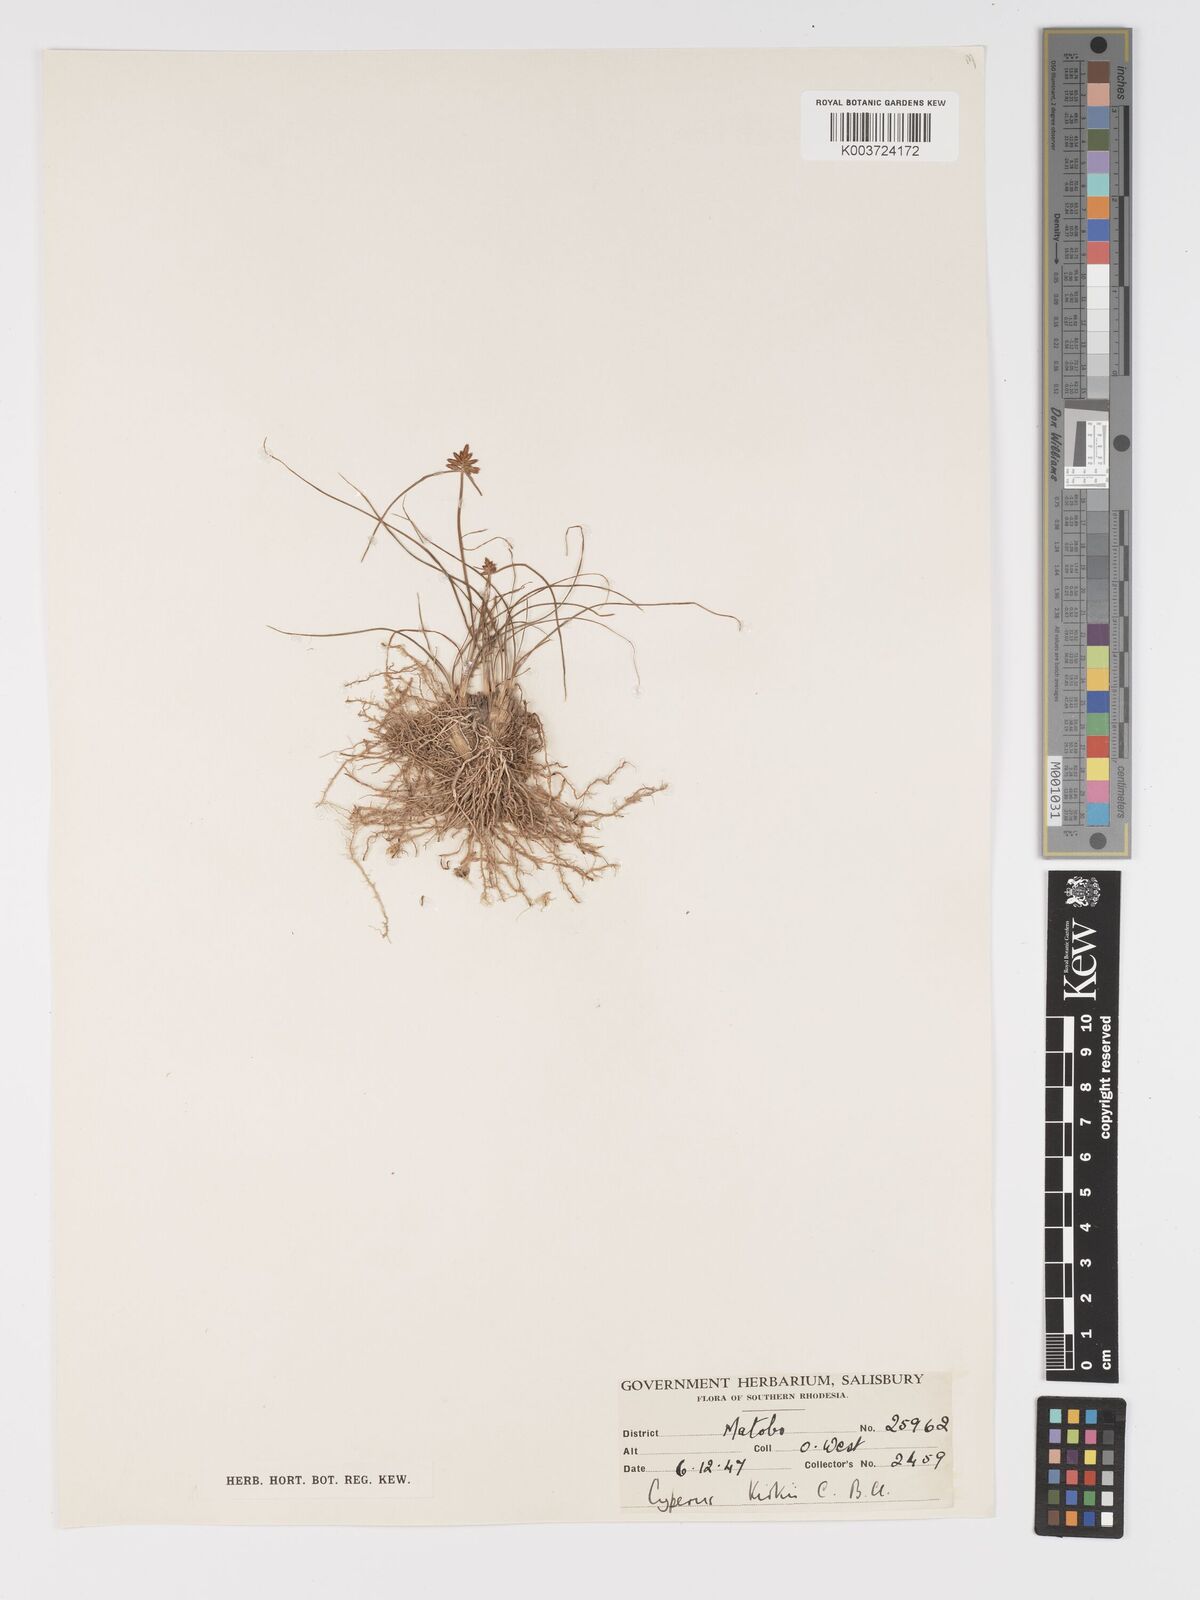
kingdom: Plantae
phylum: Tracheophyta
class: Liliopsida
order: Poales
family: Cyperaceae
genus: Cyperus
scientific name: Cyperus rupestris
